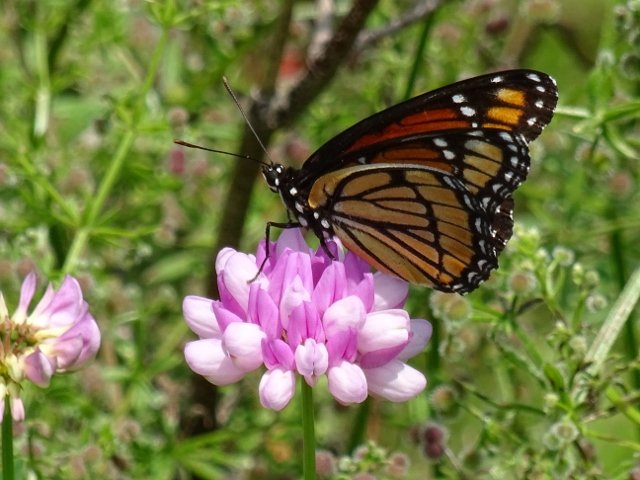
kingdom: Animalia
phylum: Arthropoda
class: Insecta
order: Lepidoptera
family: Nymphalidae
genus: Limenitis
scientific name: Limenitis archippus
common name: Viceroy
